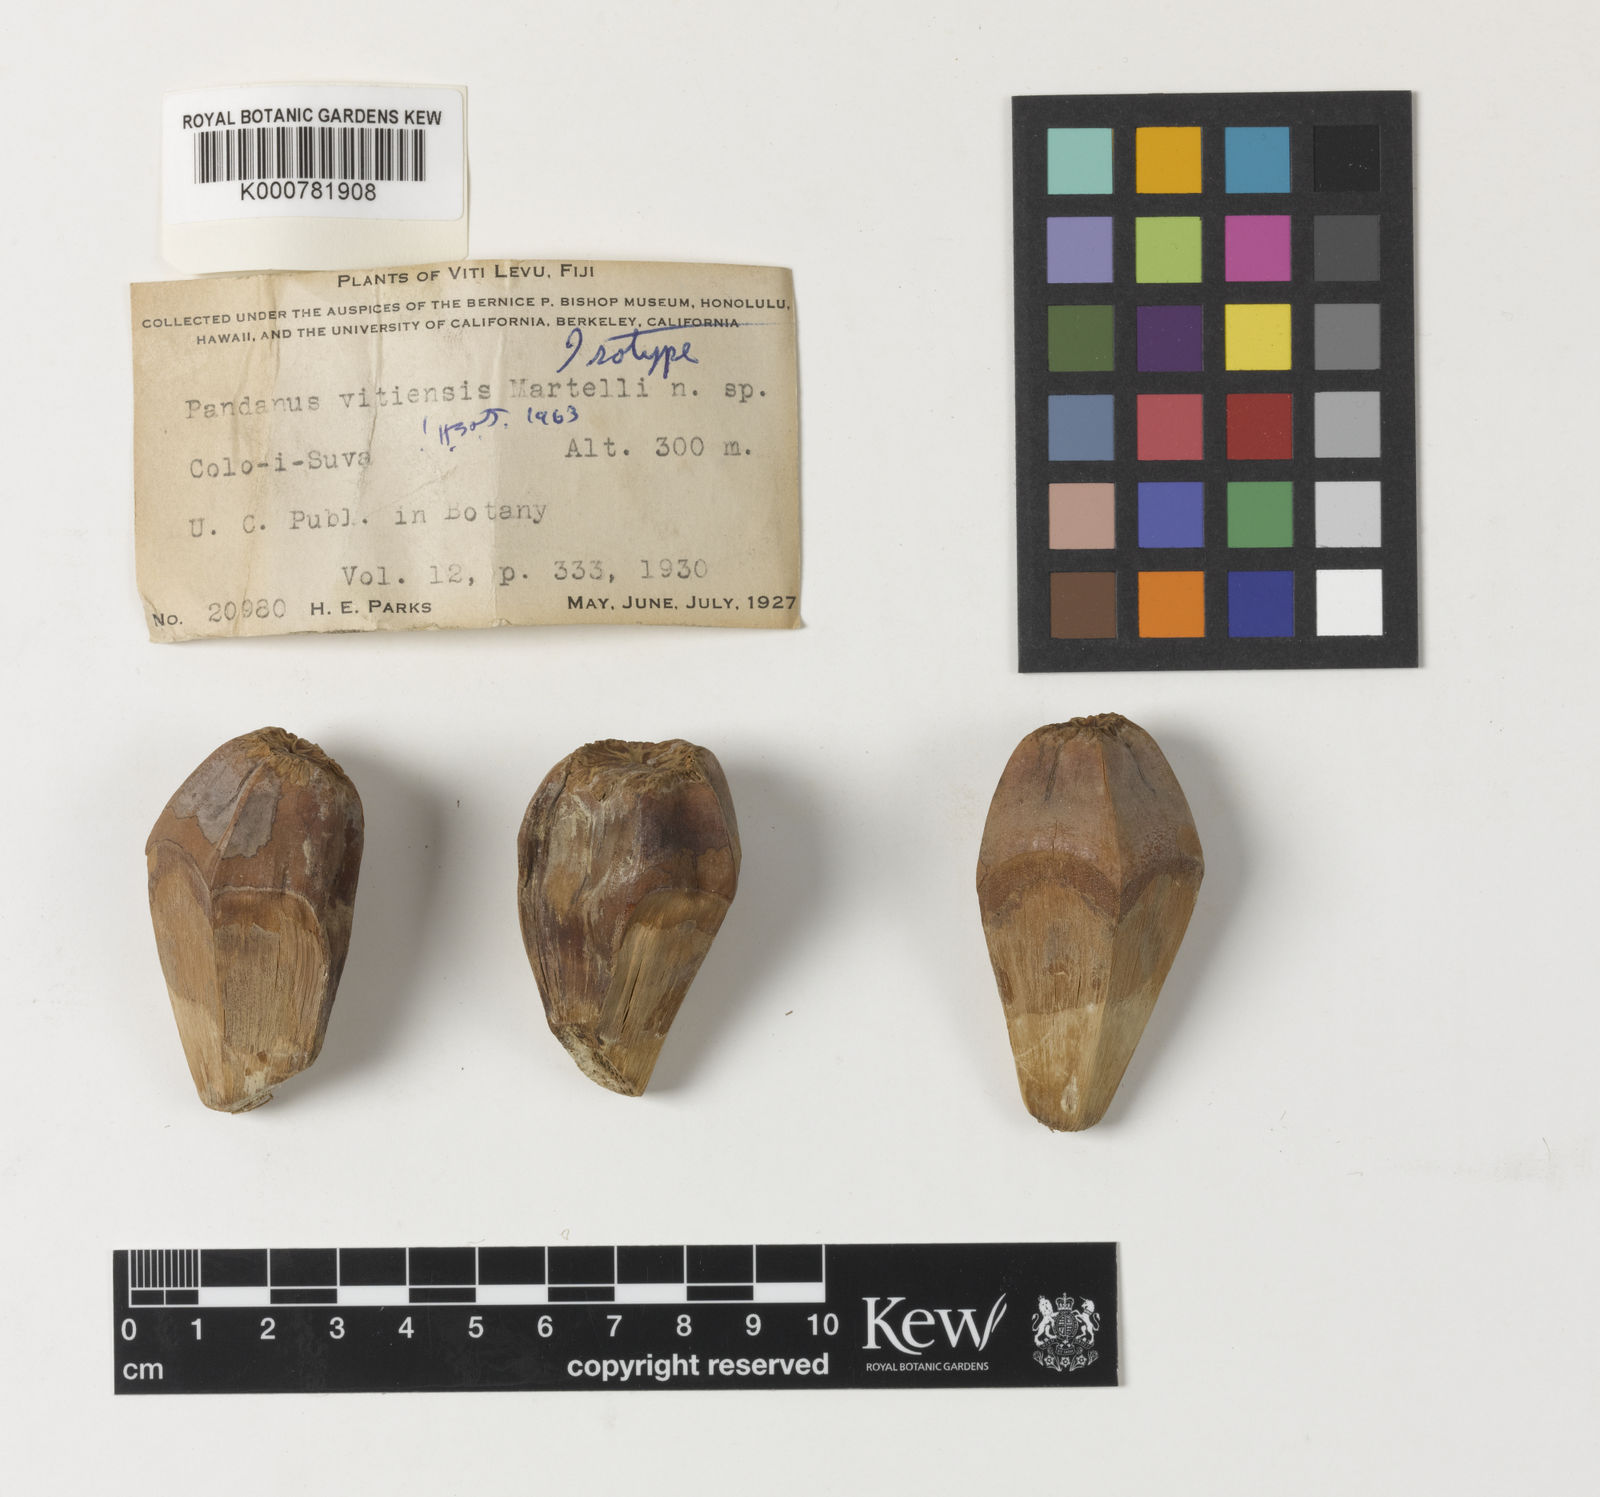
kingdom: Plantae
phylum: Tracheophyta
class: Liliopsida
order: Pandanales
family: Pandanaceae
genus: Pandanus
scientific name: Pandanus vitiensis
